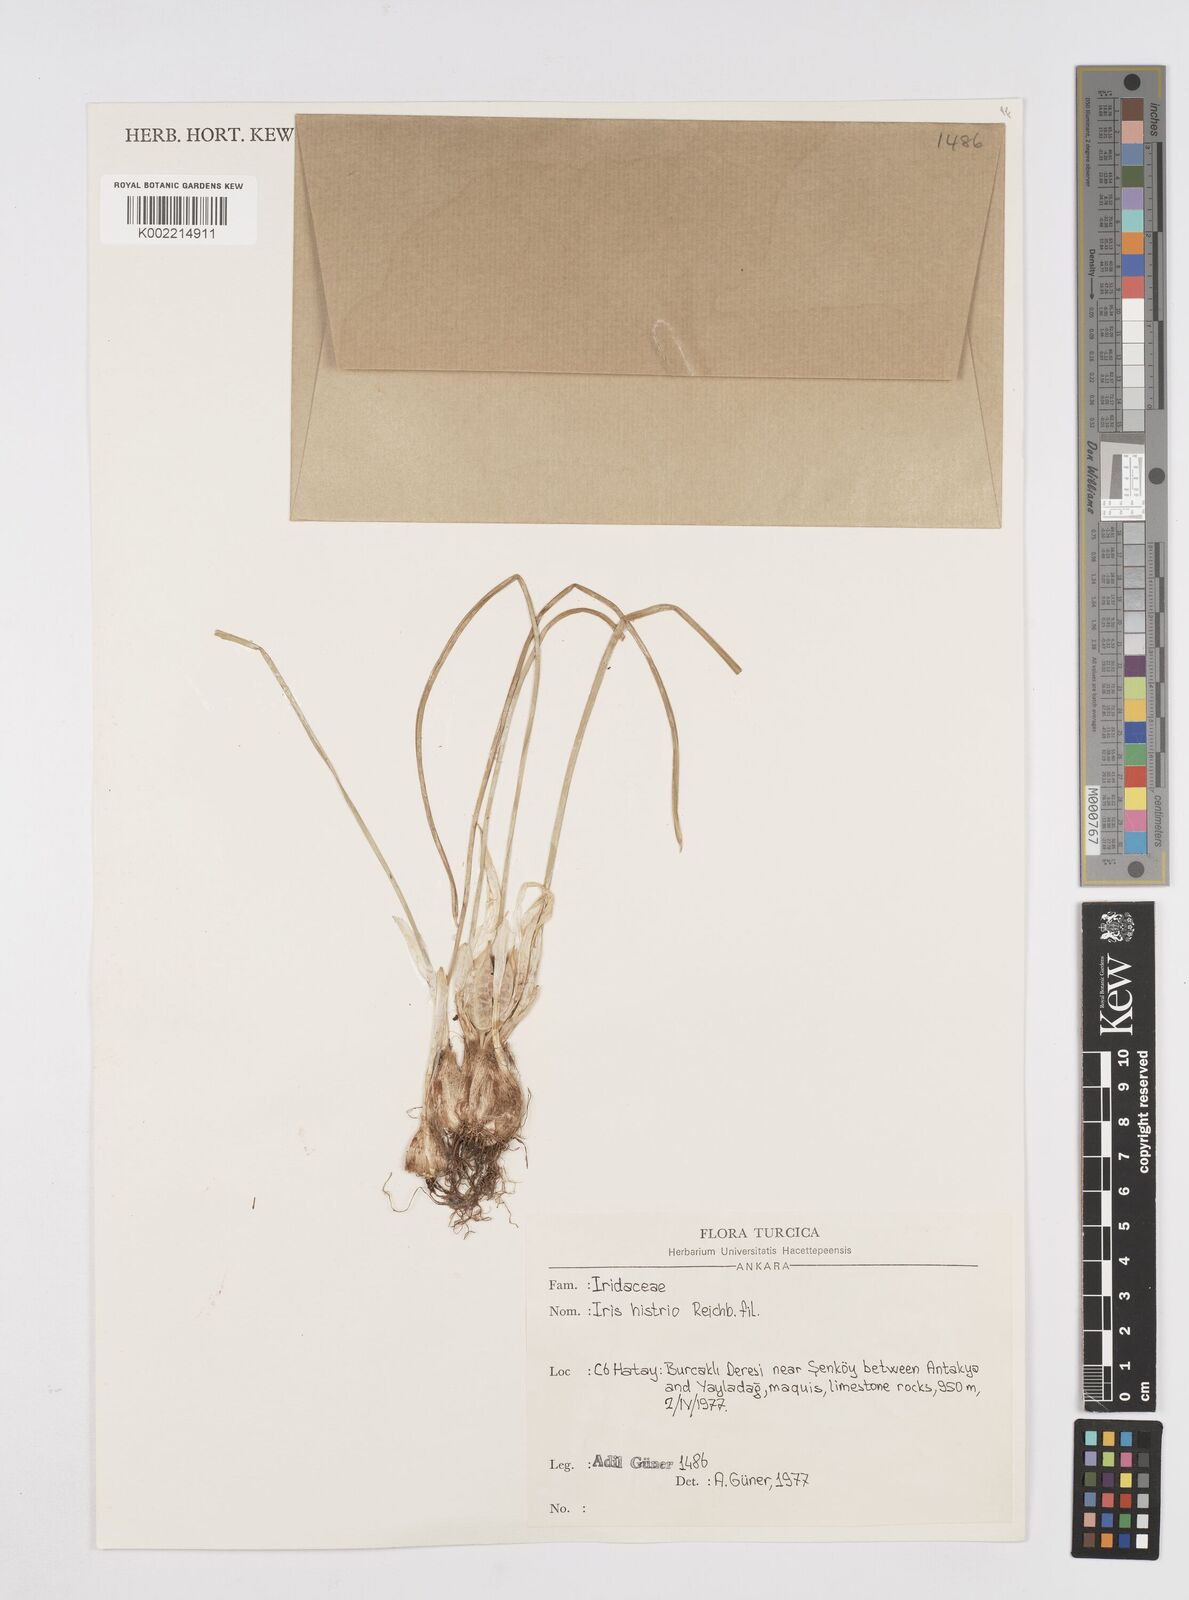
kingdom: Plantae
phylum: Tracheophyta
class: Liliopsida
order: Asparagales
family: Iridaceae
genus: Iris
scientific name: Iris histrio
